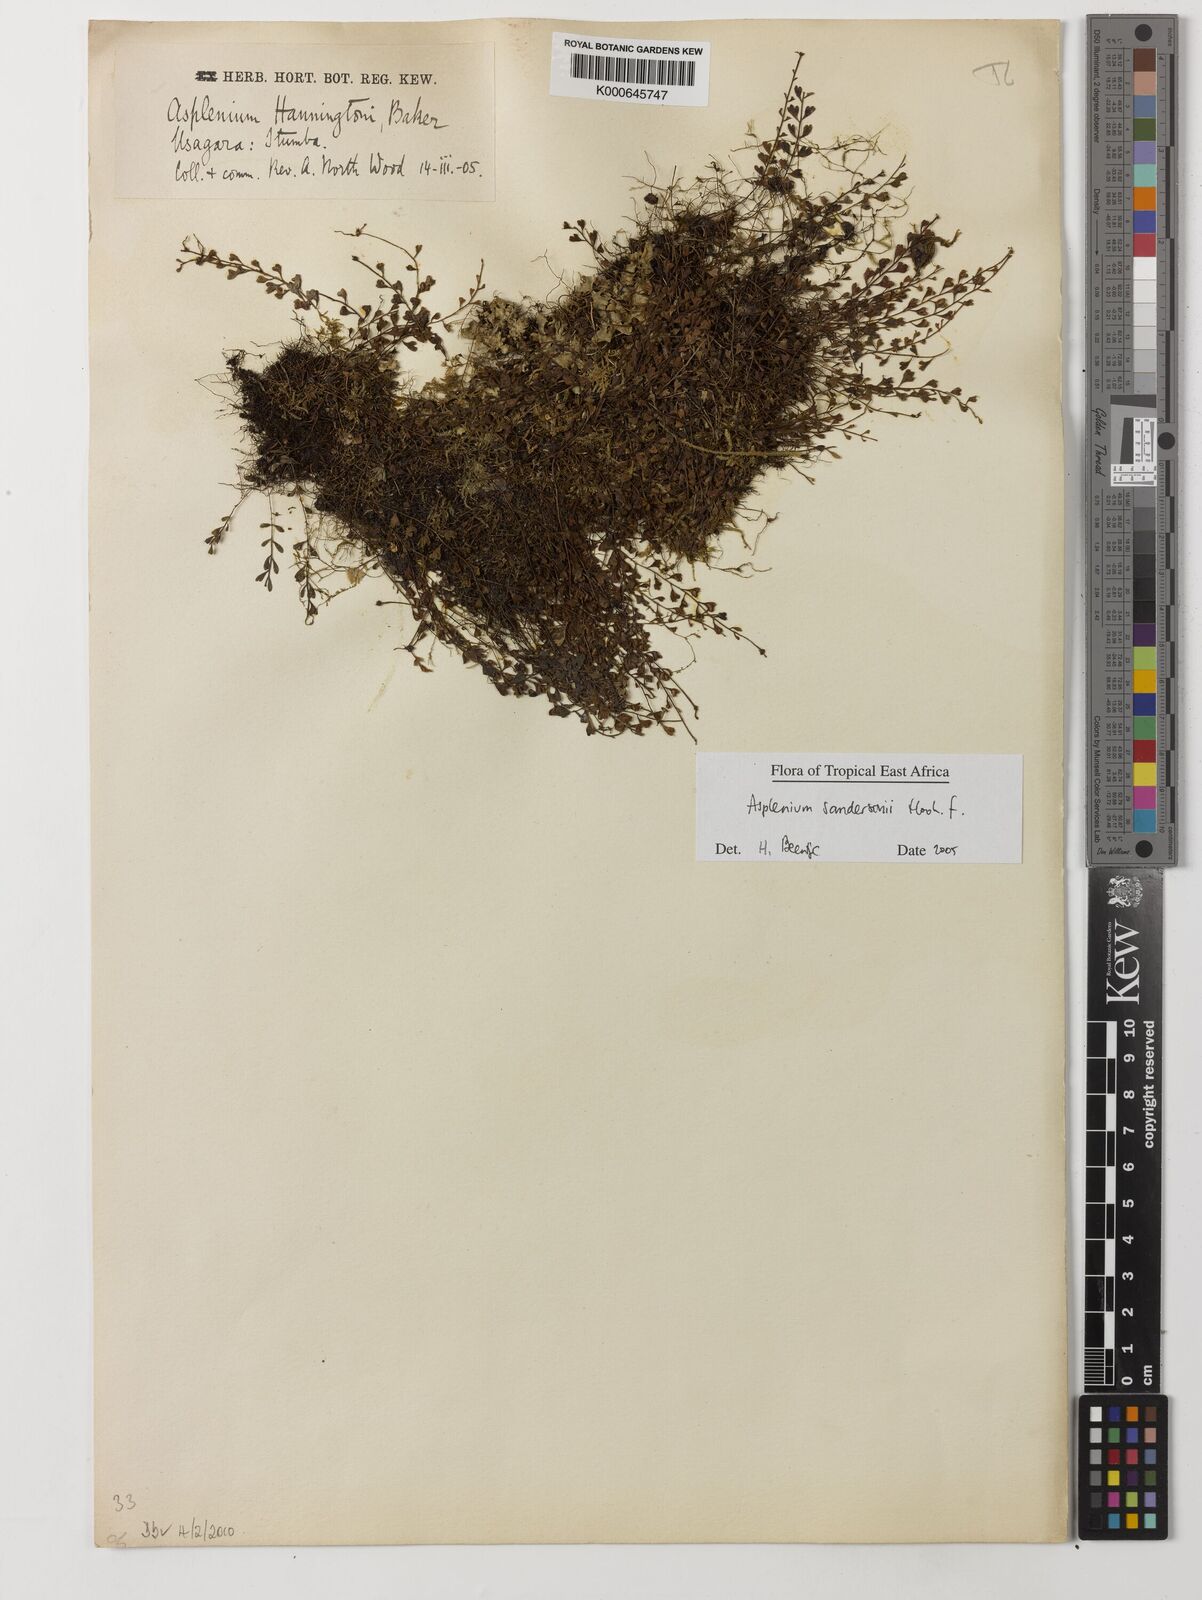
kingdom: Plantae
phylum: Tracheophyta
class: Polypodiopsida
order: Polypodiales
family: Aspleniaceae
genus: Asplenium
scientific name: Asplenium sandersonii
